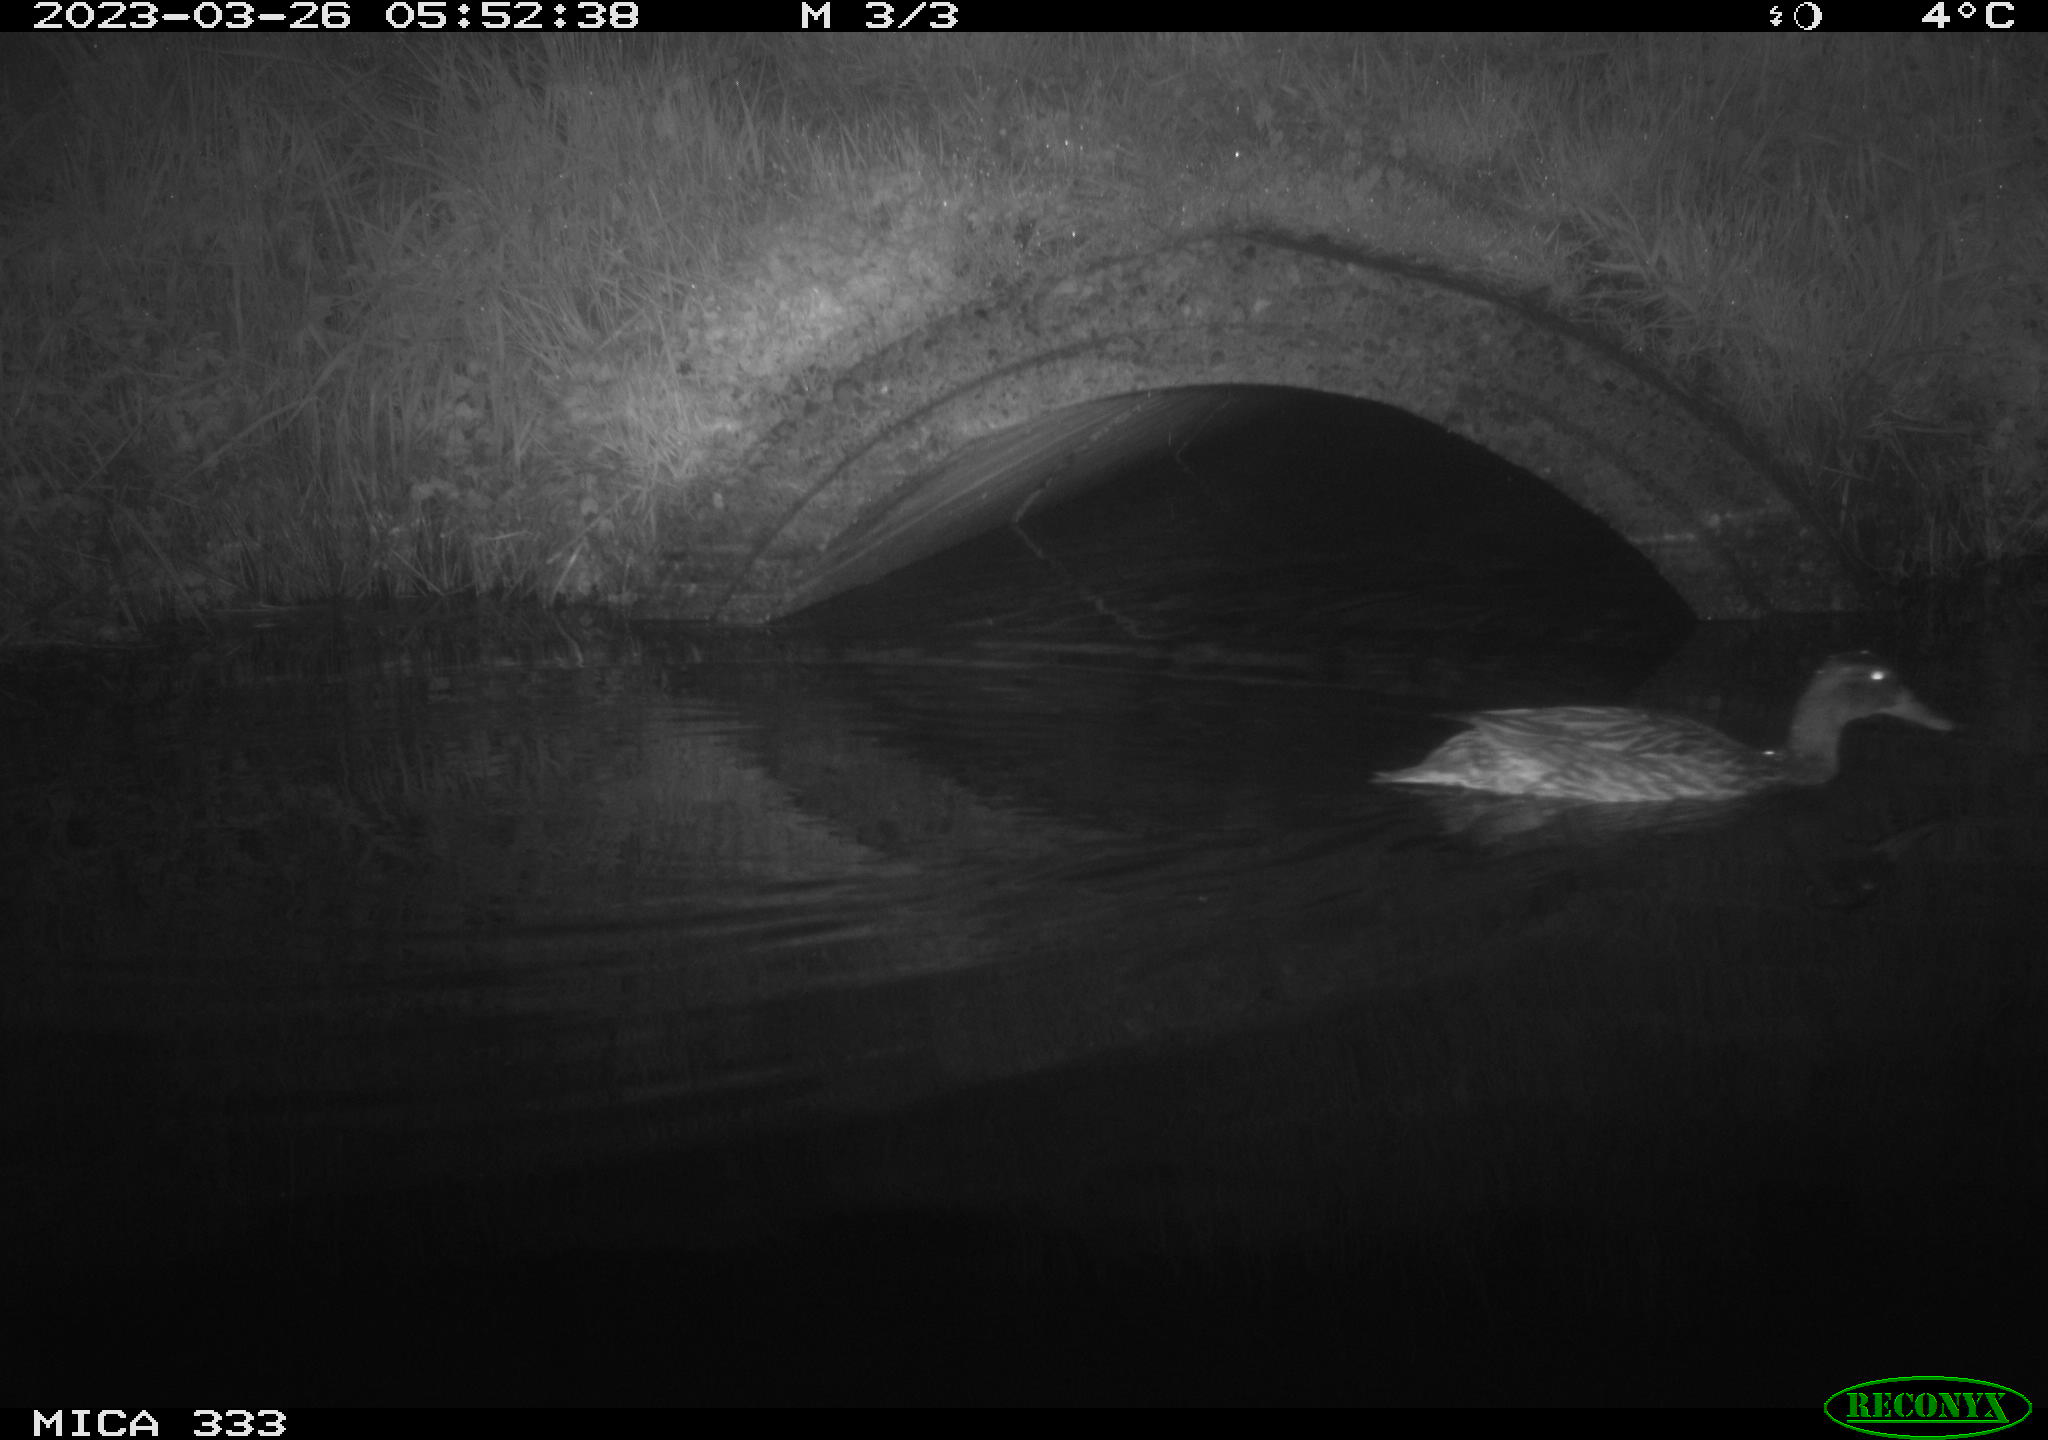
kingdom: Animalia
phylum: Chordata
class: Aves
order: Anseriformes
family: Anatidae
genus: Anas
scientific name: Anas platyrhynchos
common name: Mallard
